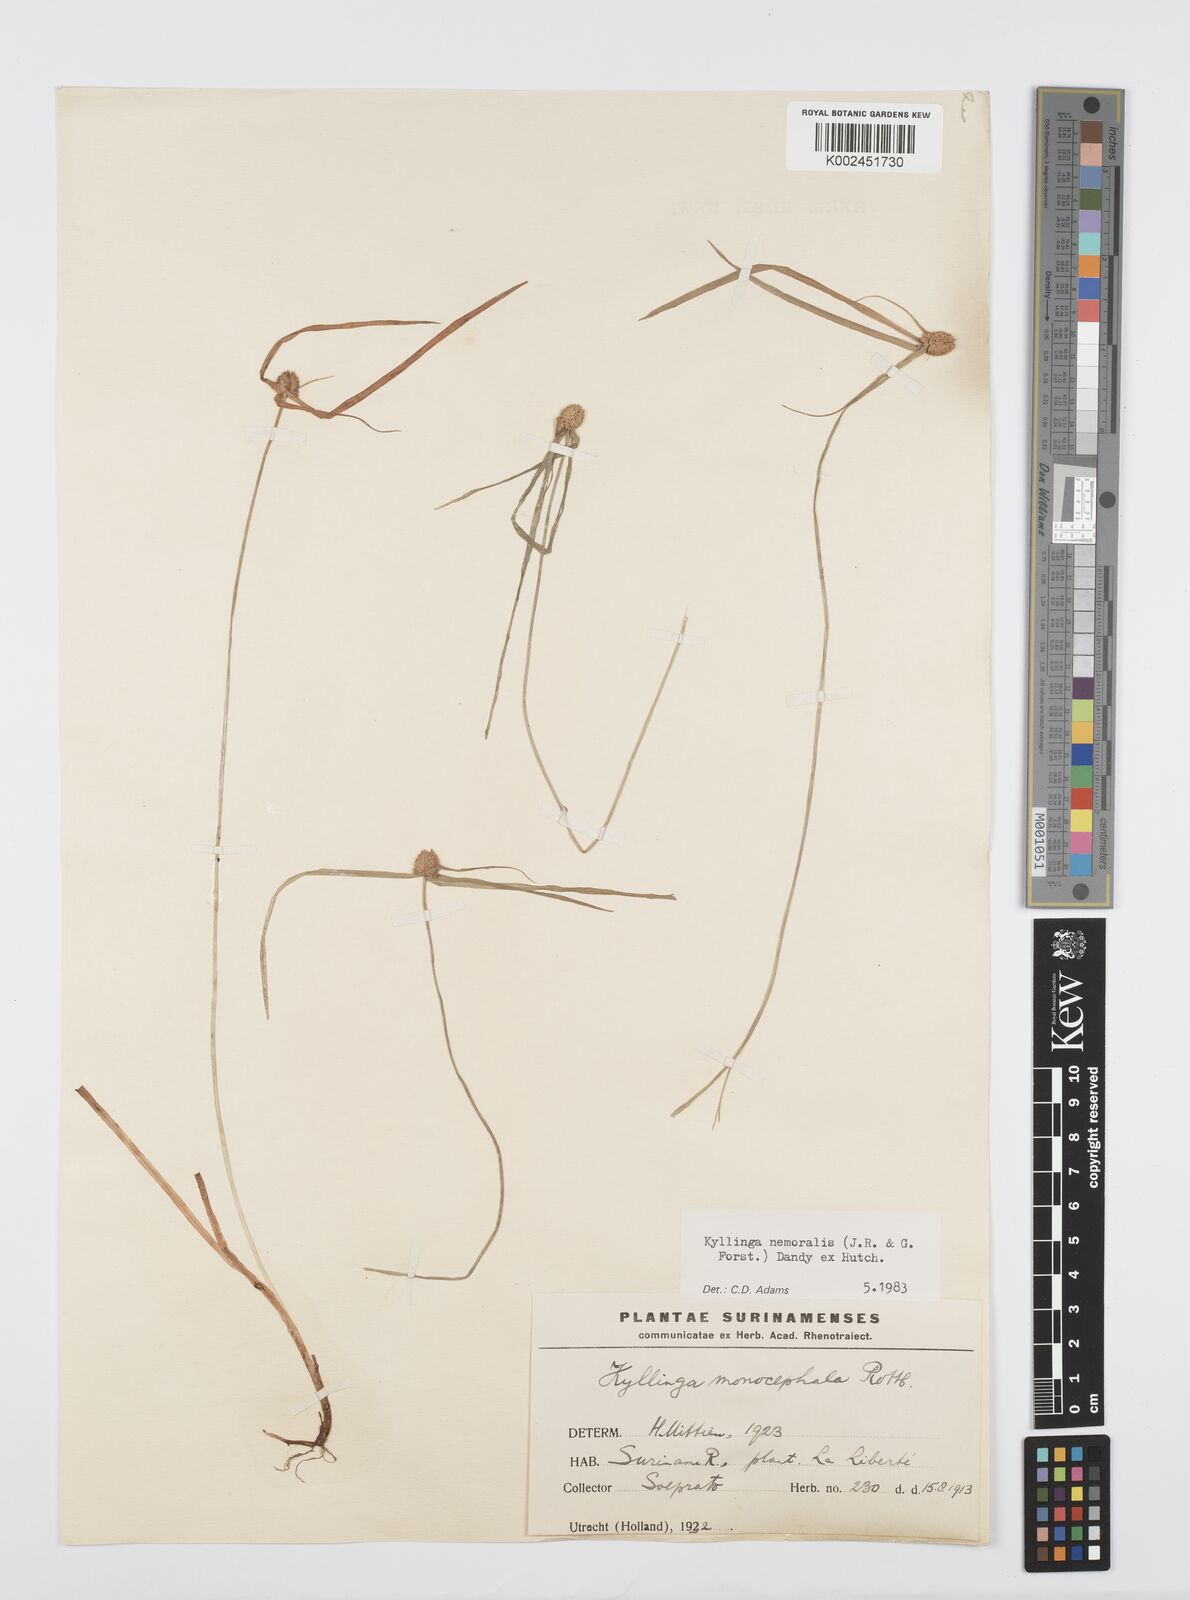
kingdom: Plantae
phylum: Tracheophyta
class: Liliopsida
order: Poales
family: Cyperaceae
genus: Cyperus
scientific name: Cyperus nemoralis
